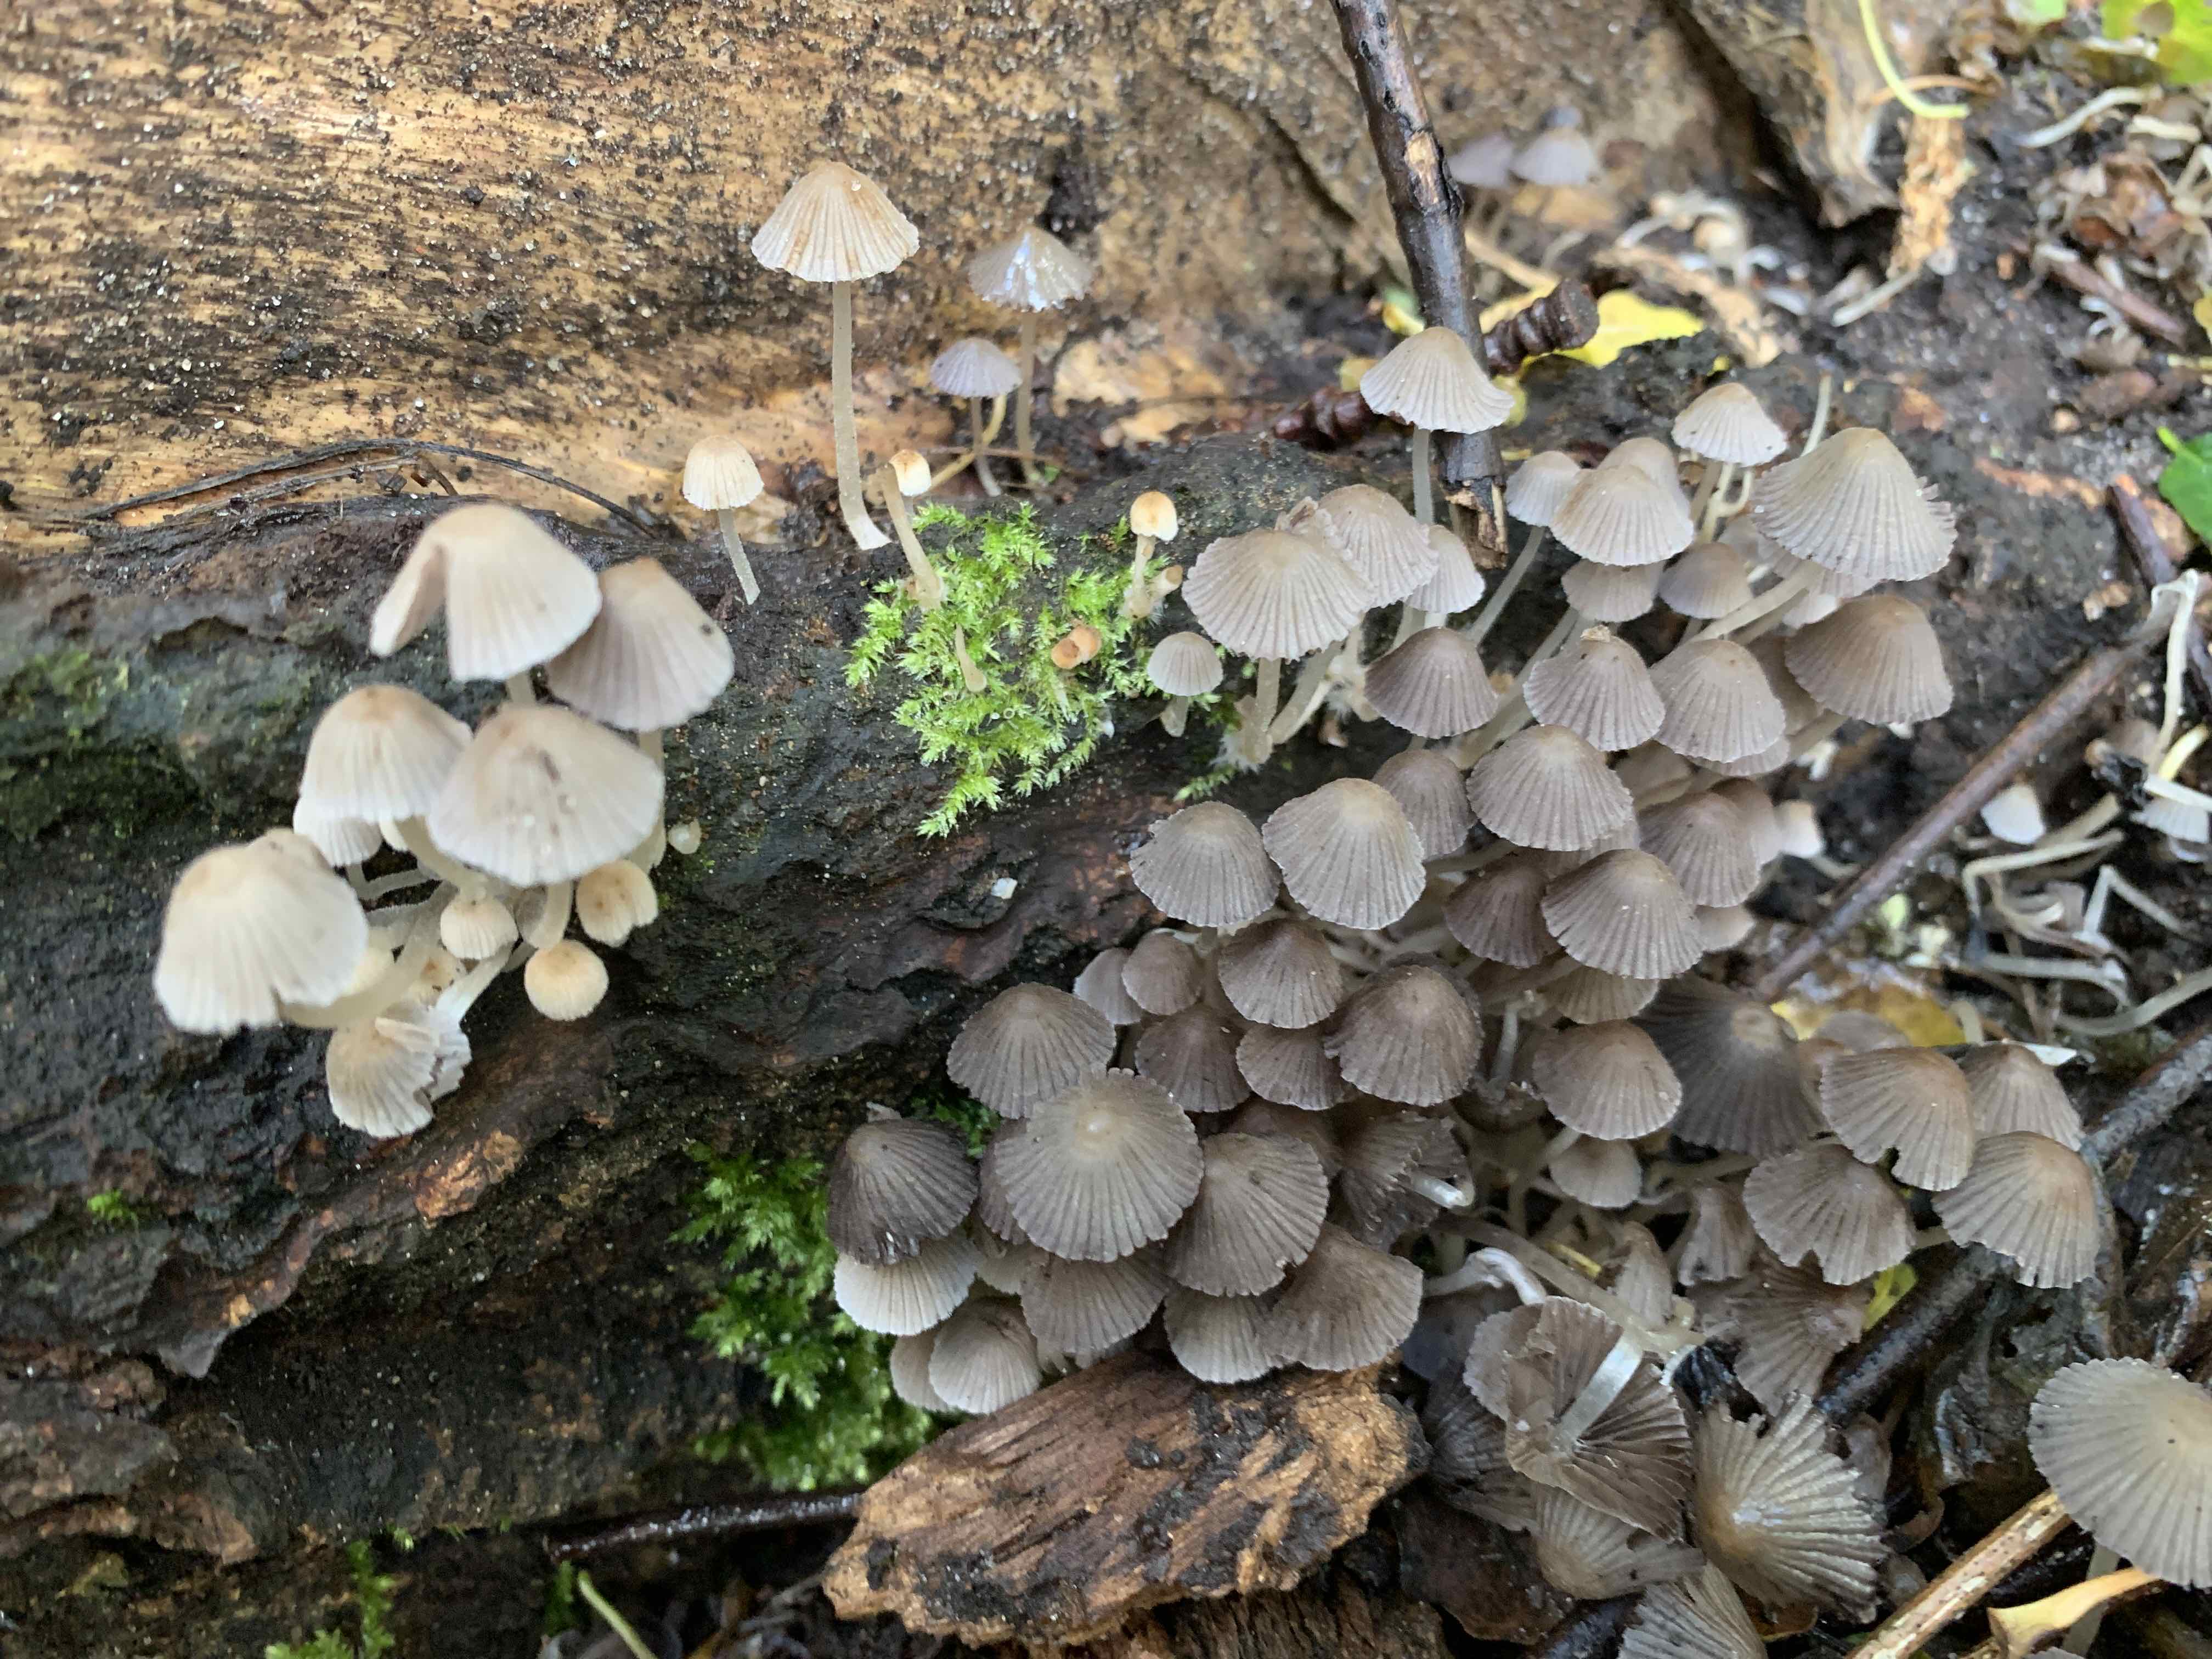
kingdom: Fungi
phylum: Basidiomycota
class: Agaricomycetes
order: Agaricales
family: Psathyrellaceae
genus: Coprinellus
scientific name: Coprinellus disseminatus
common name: bredsået blækhat
